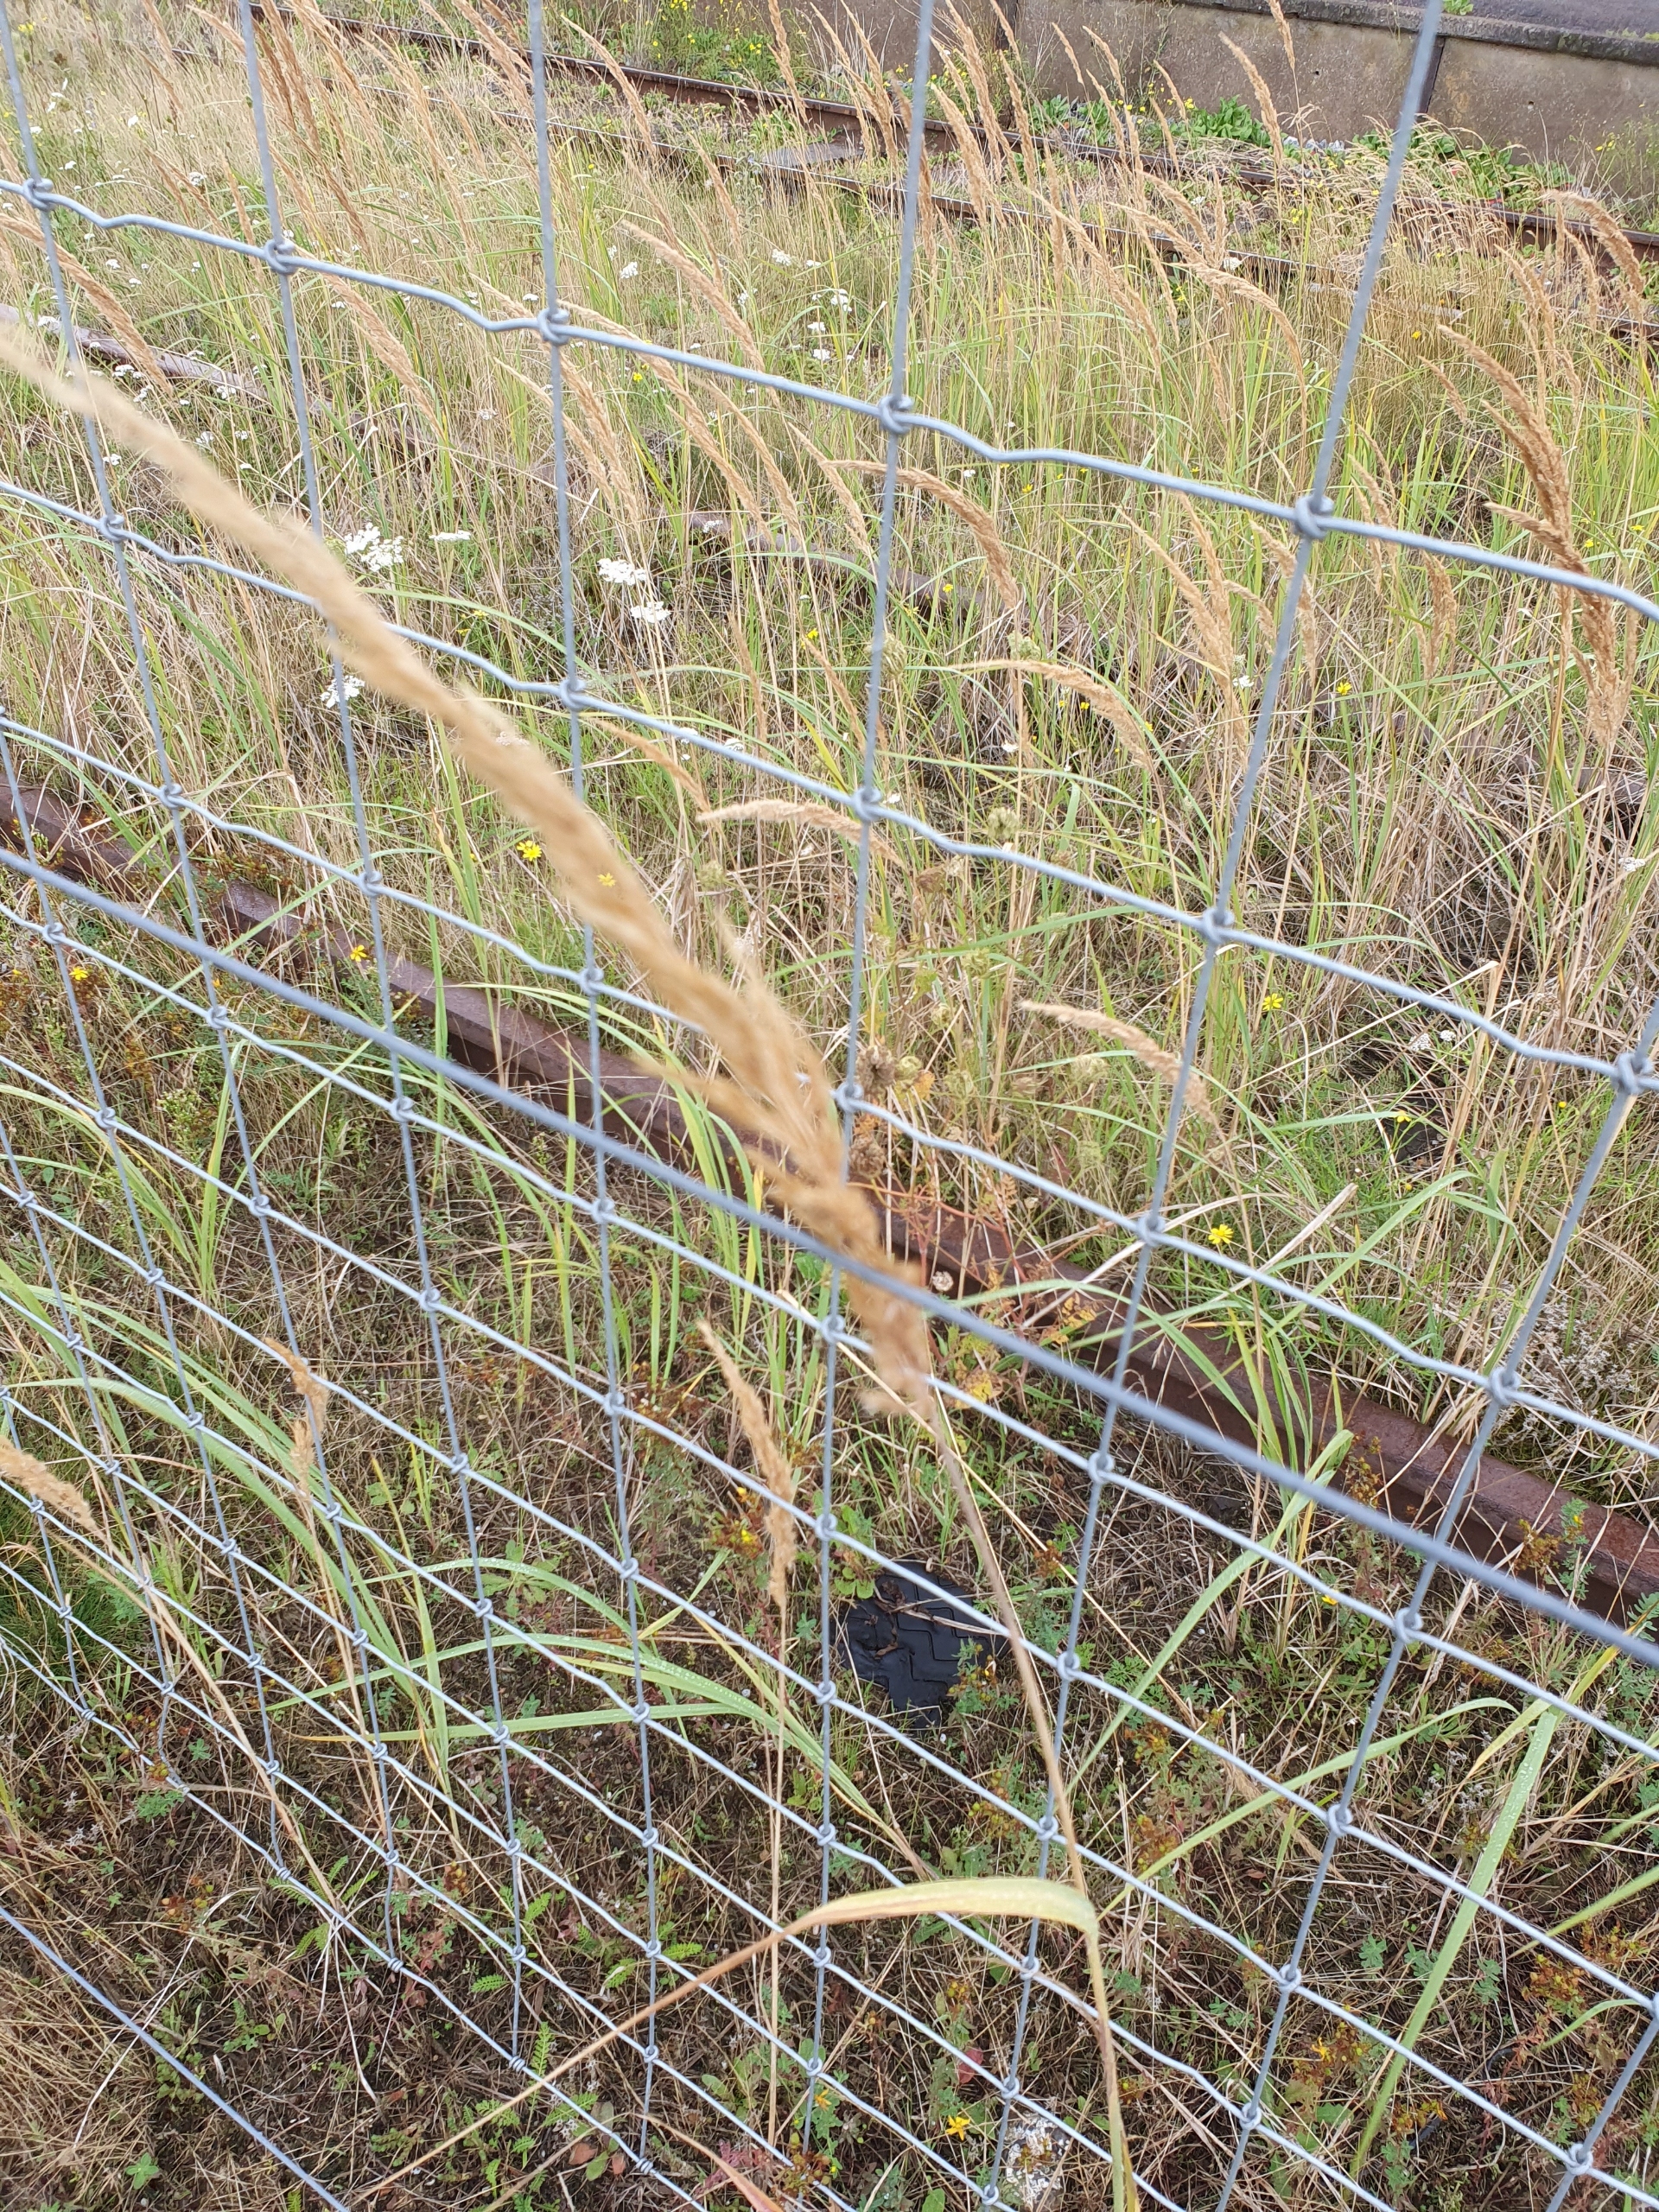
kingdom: Plantae
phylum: Tracheophyta
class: Liliopsida
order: Poales
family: Poaceae
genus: Calamagrostis
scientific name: Calamagrostis epigejos
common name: Bjerg-rørhvene
